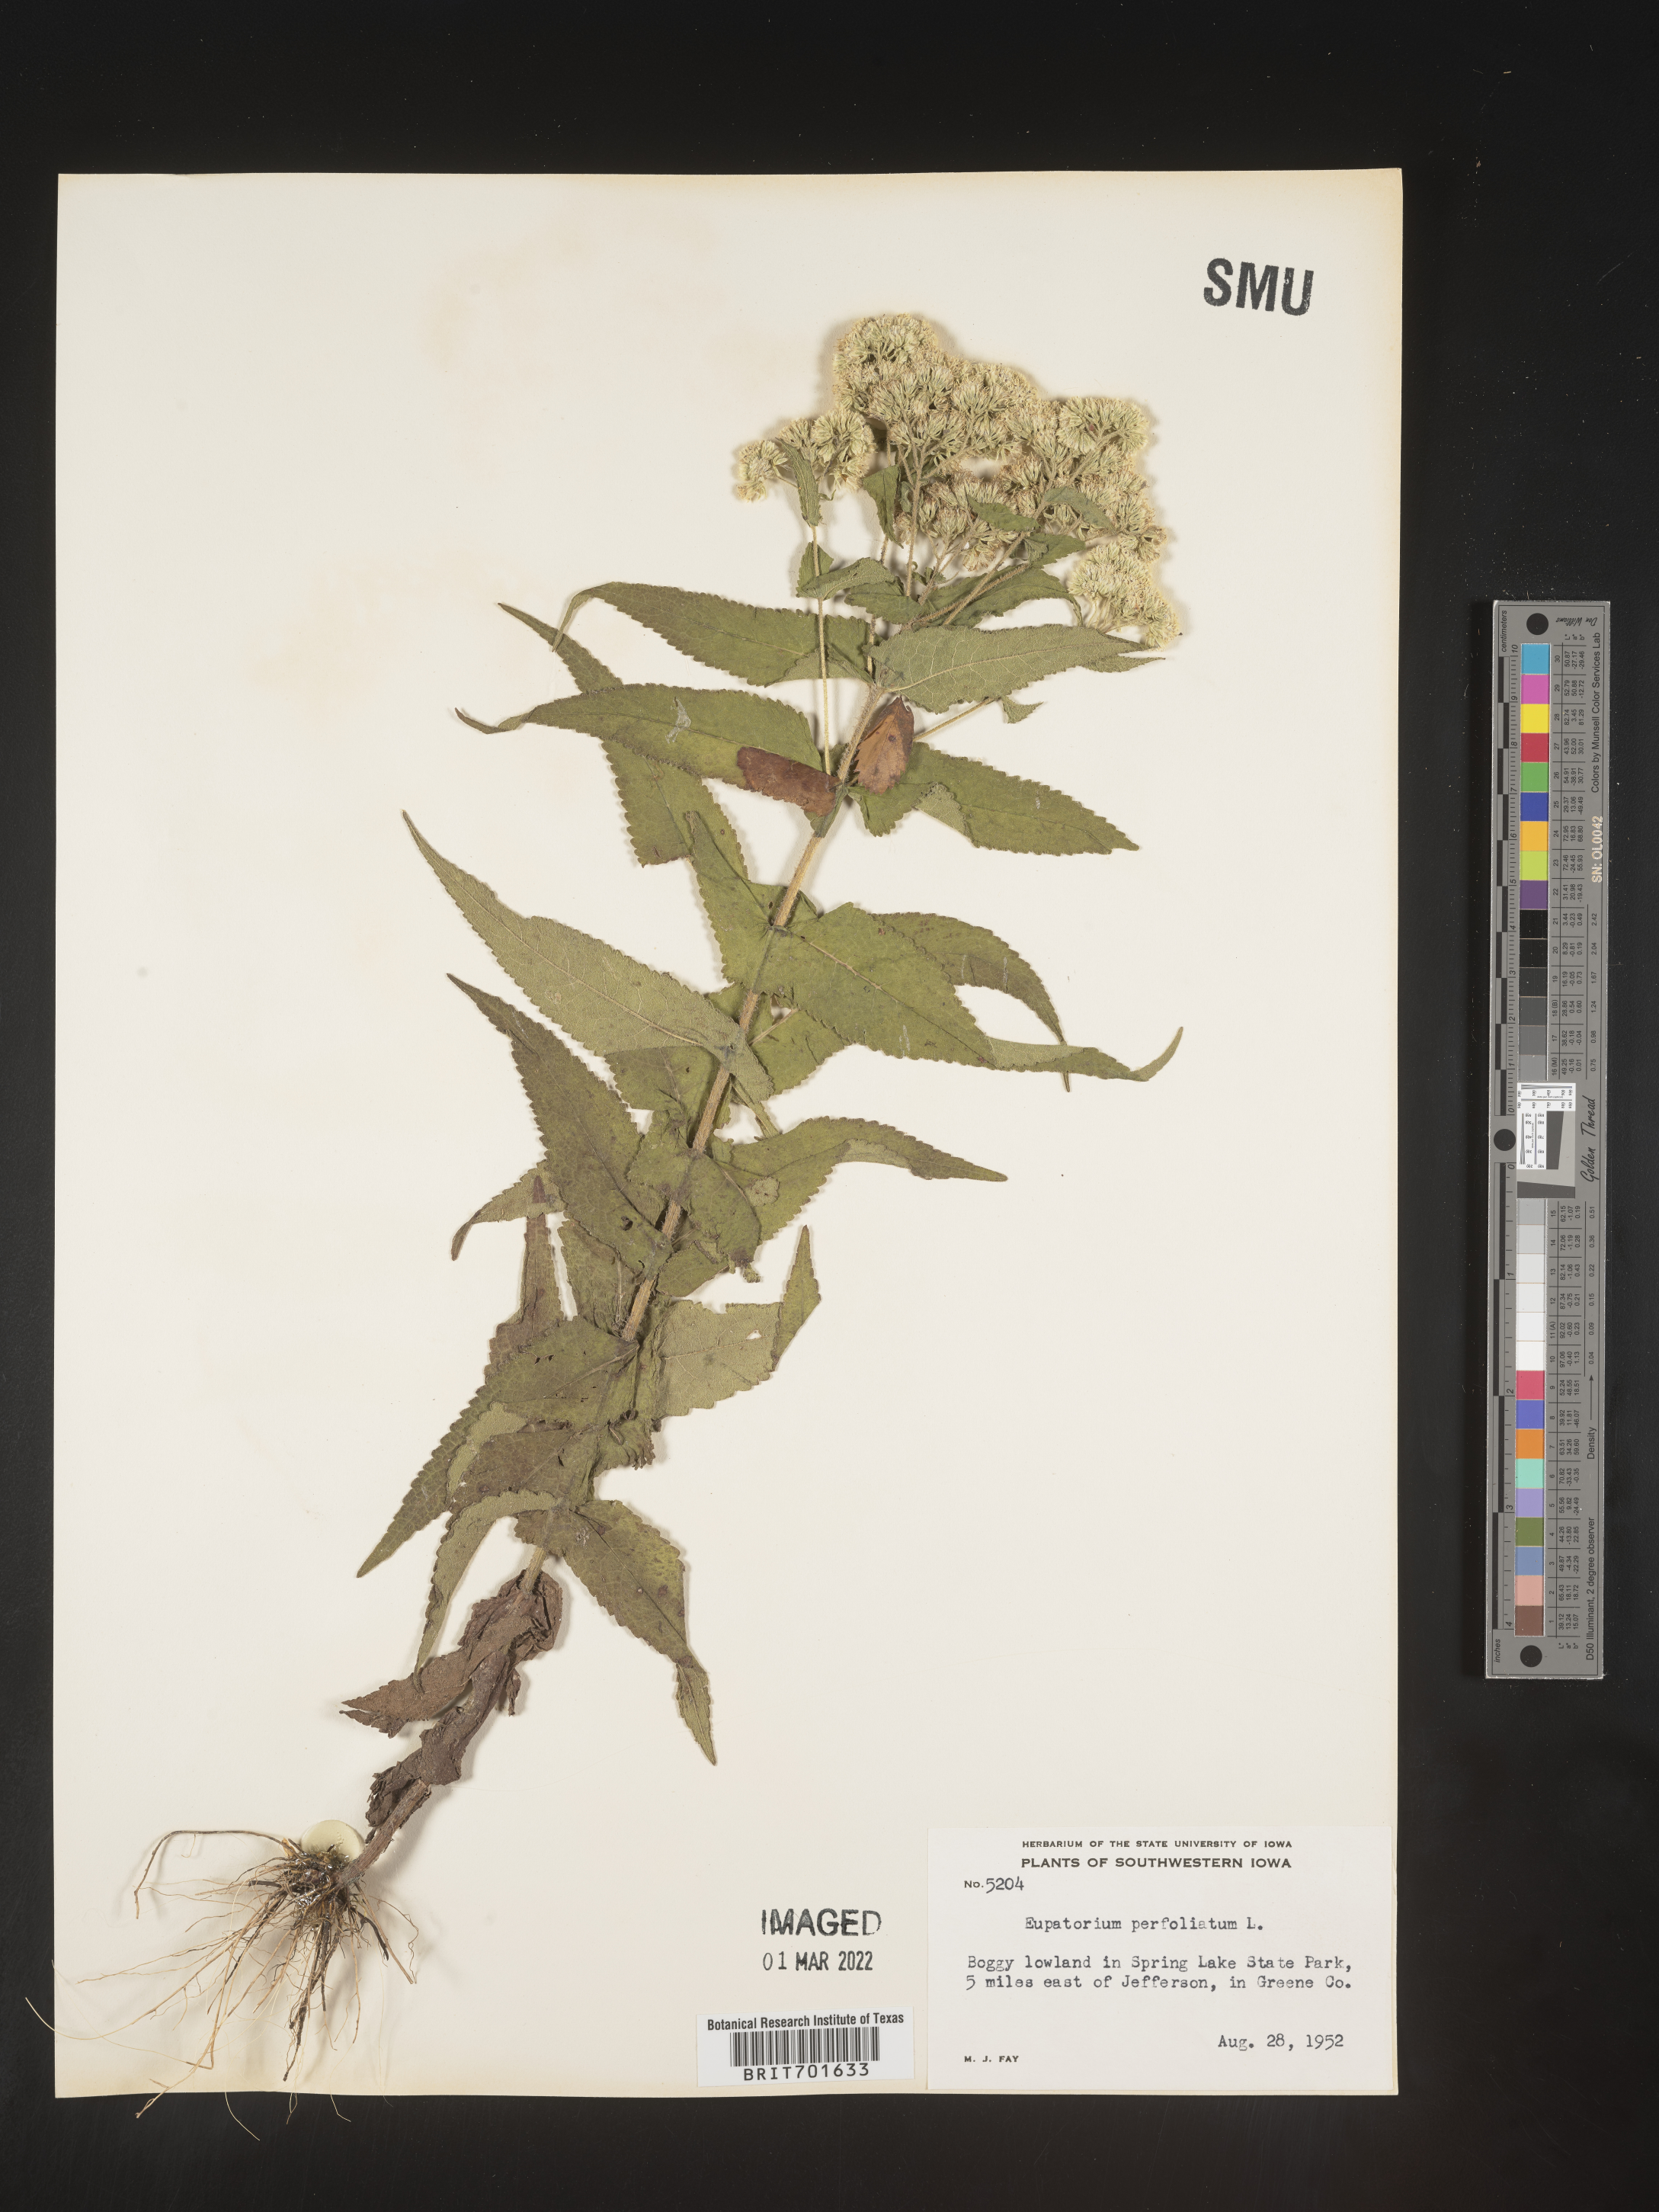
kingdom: Plantae
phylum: Tracheophyta
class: Magnoliopsida
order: Asterales
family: Asteraceae
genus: Eupatorium
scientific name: Eupatorium perfoliatum
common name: Boneset
